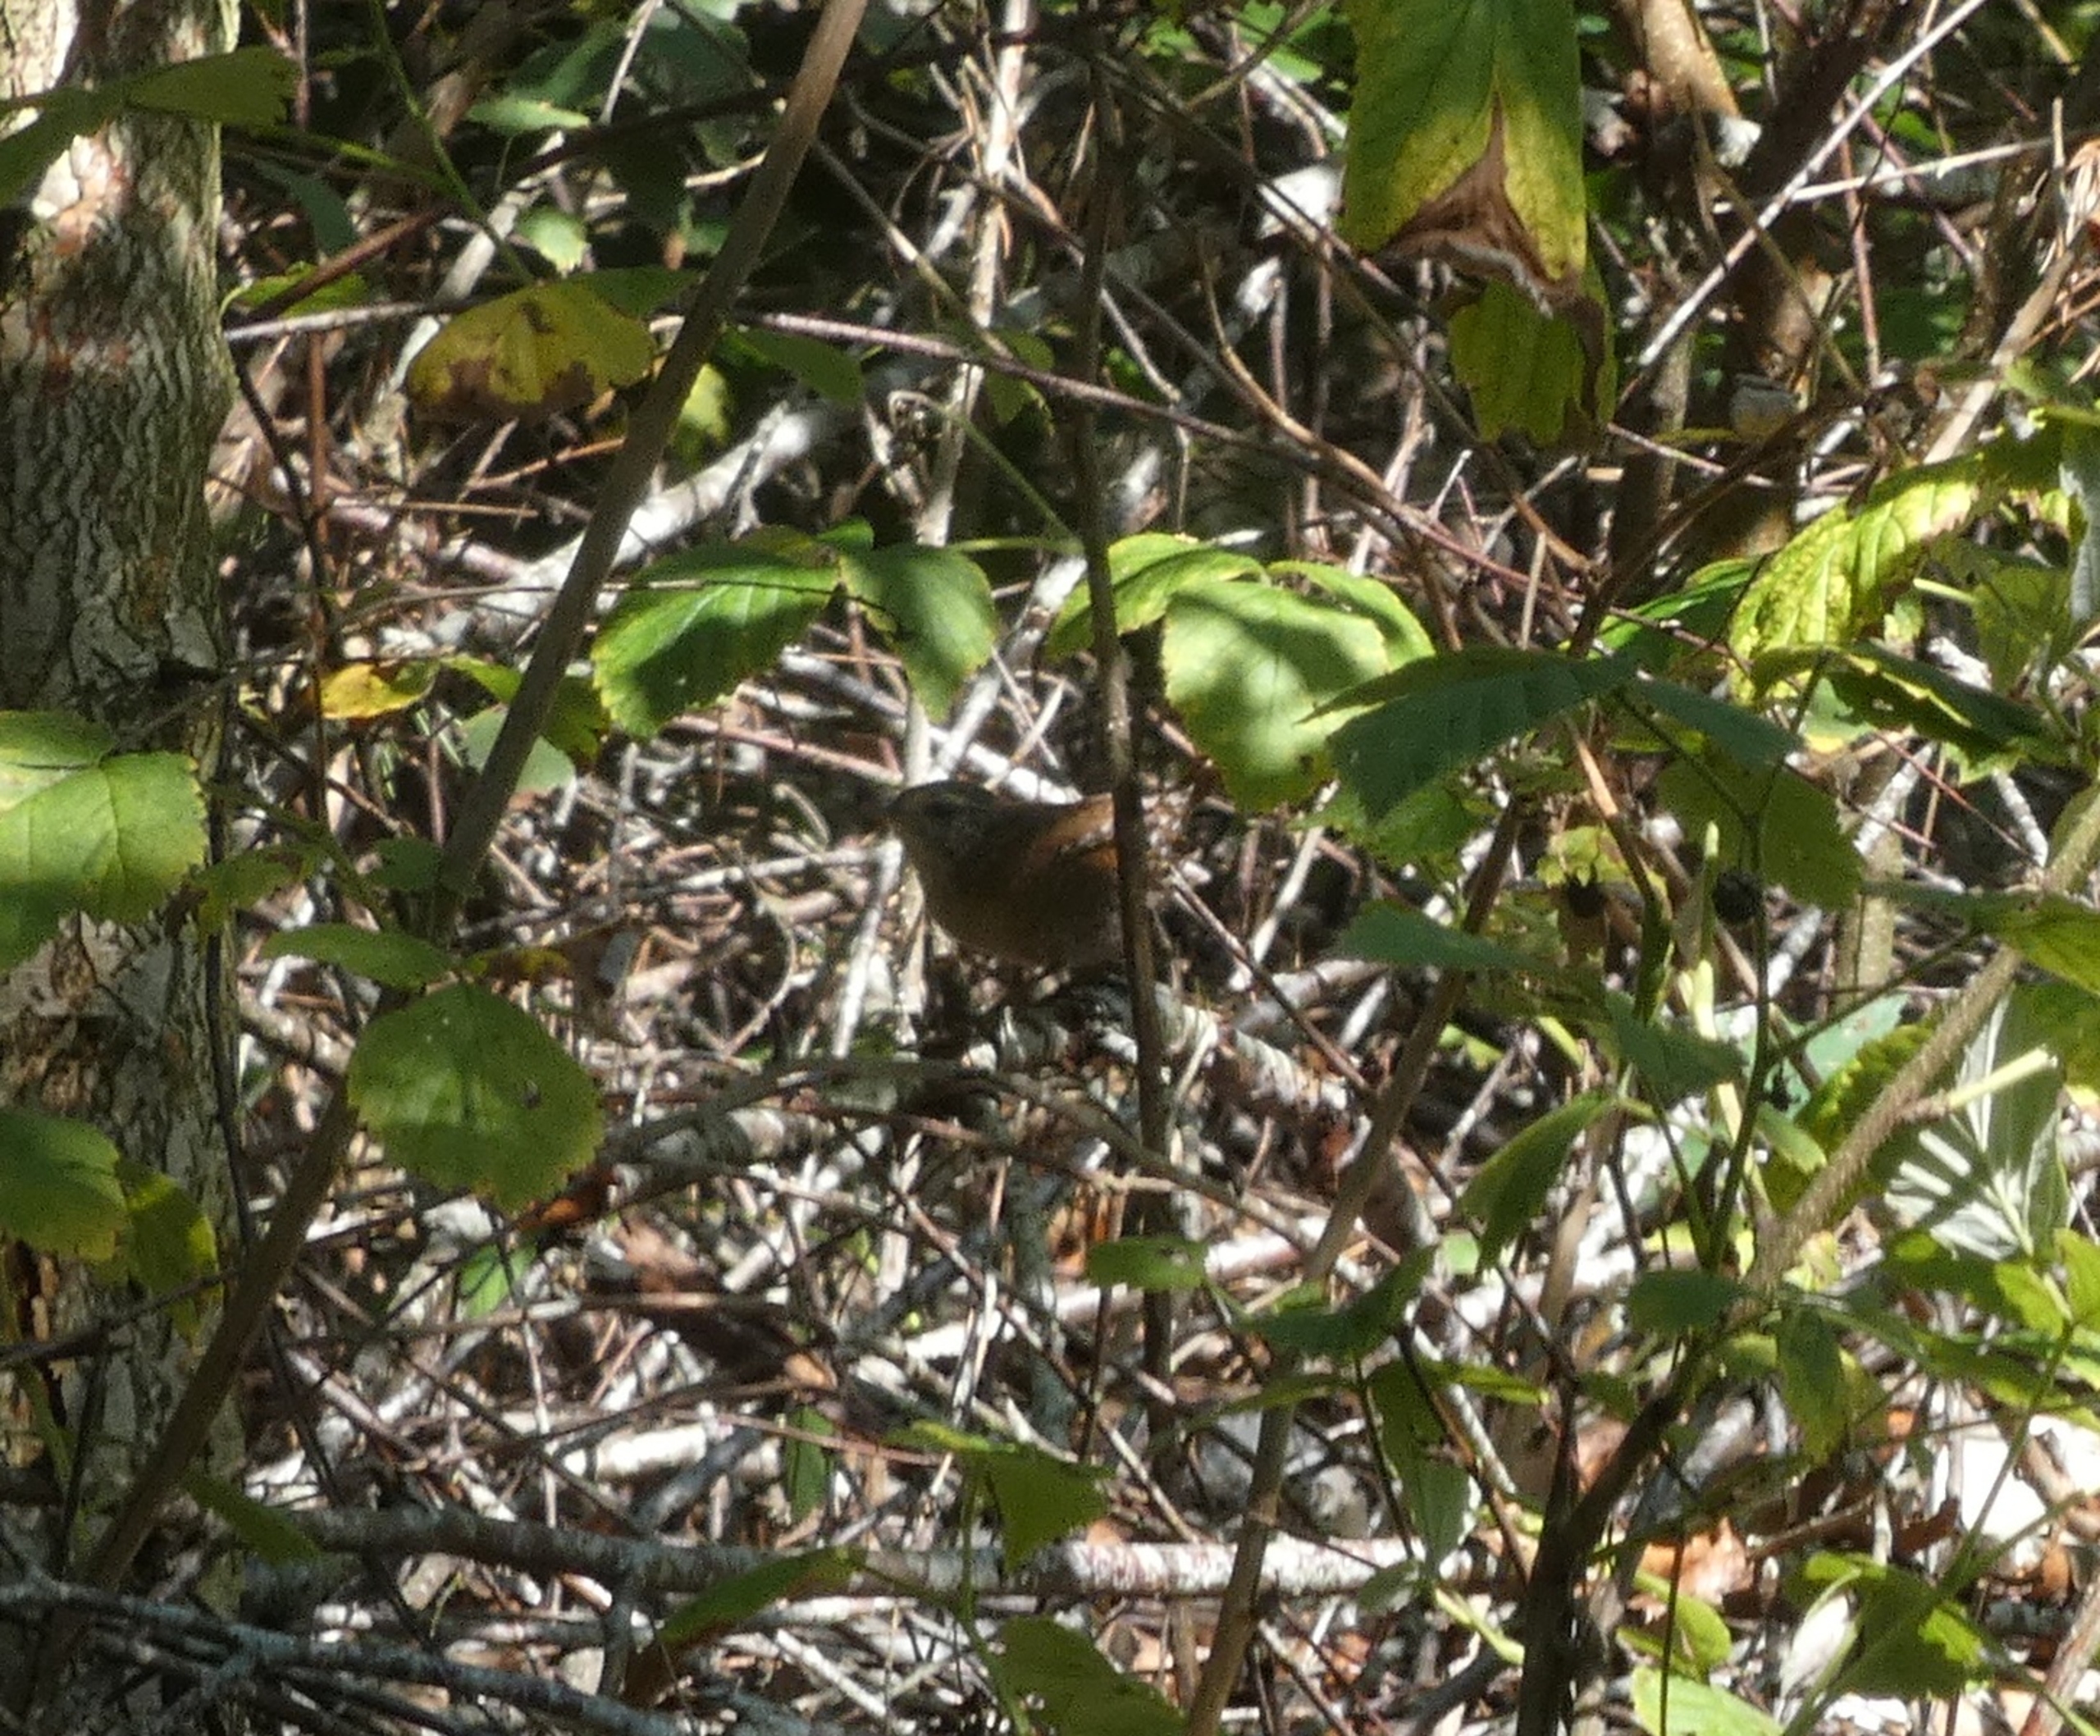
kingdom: Animalia
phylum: Chordata
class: Aves
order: Passeriformes
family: Troglodytidae
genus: Troglodytes
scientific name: Troglodytes troglodytes
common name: Gærdesmutte
